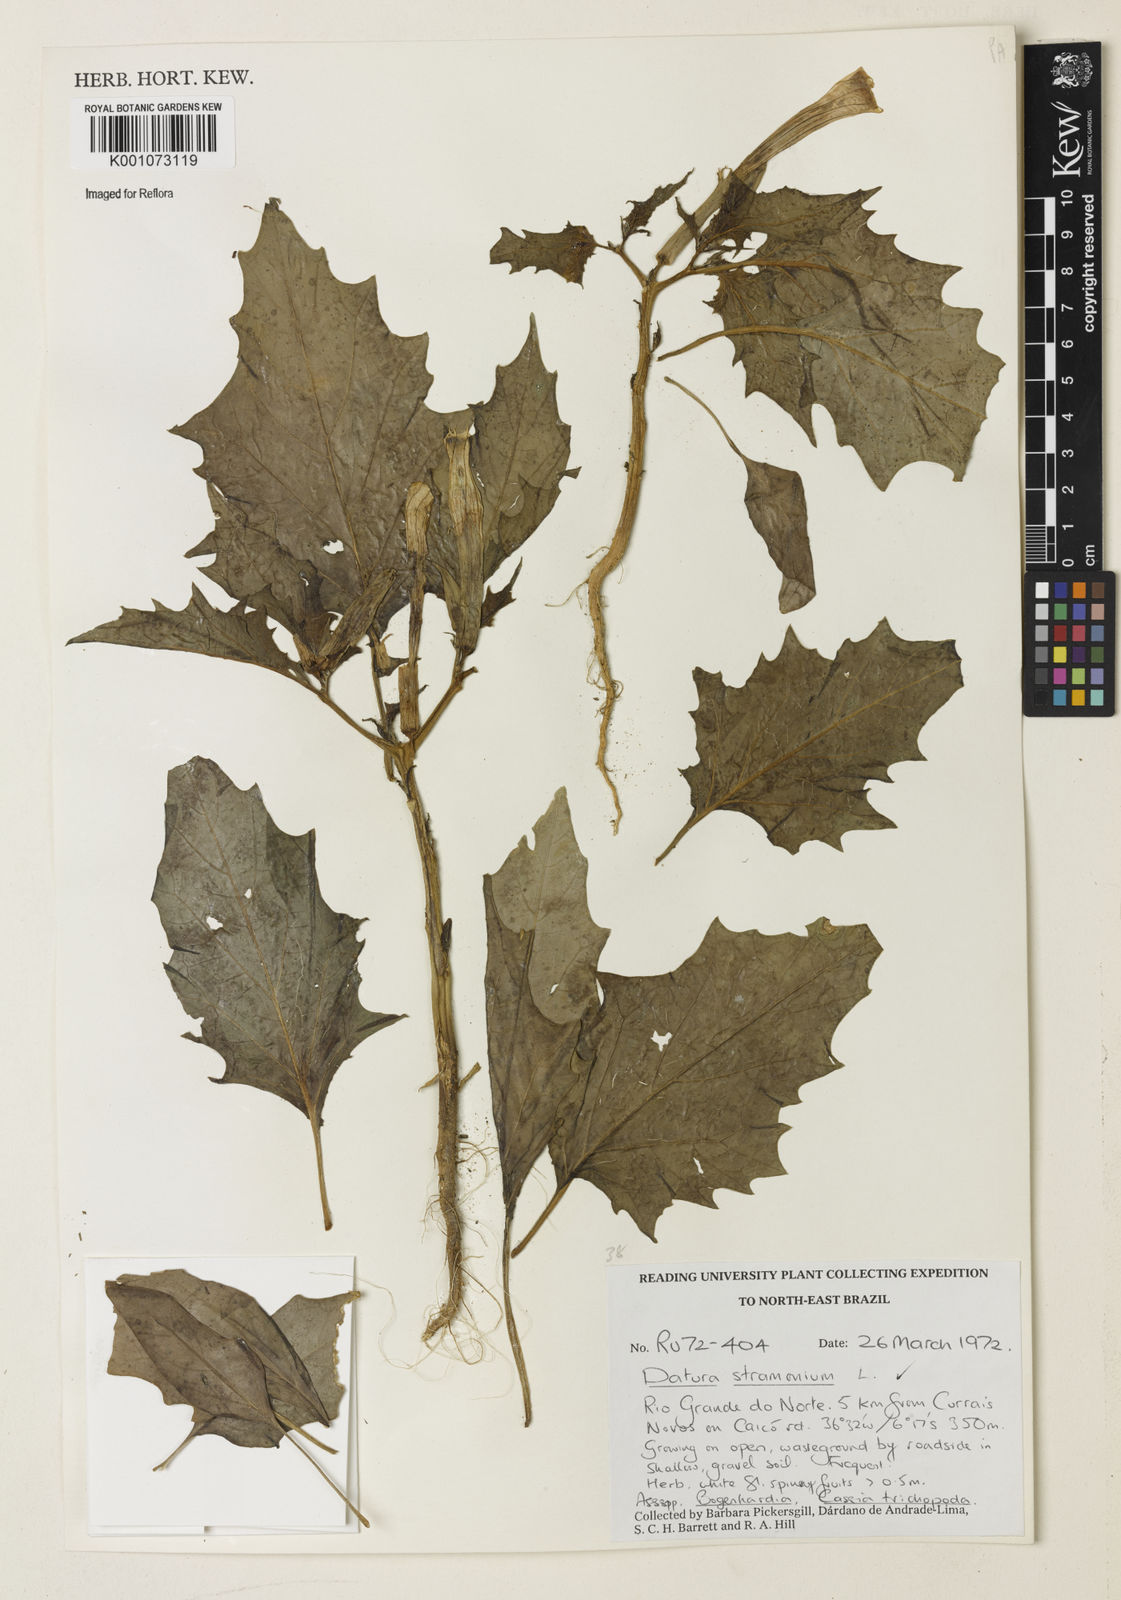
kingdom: Plantae
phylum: Tracheophyta
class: Magnoliopsida
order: Solanales
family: Solanaceae
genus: Datura
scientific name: Datura stramonium
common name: Thorn-apple
